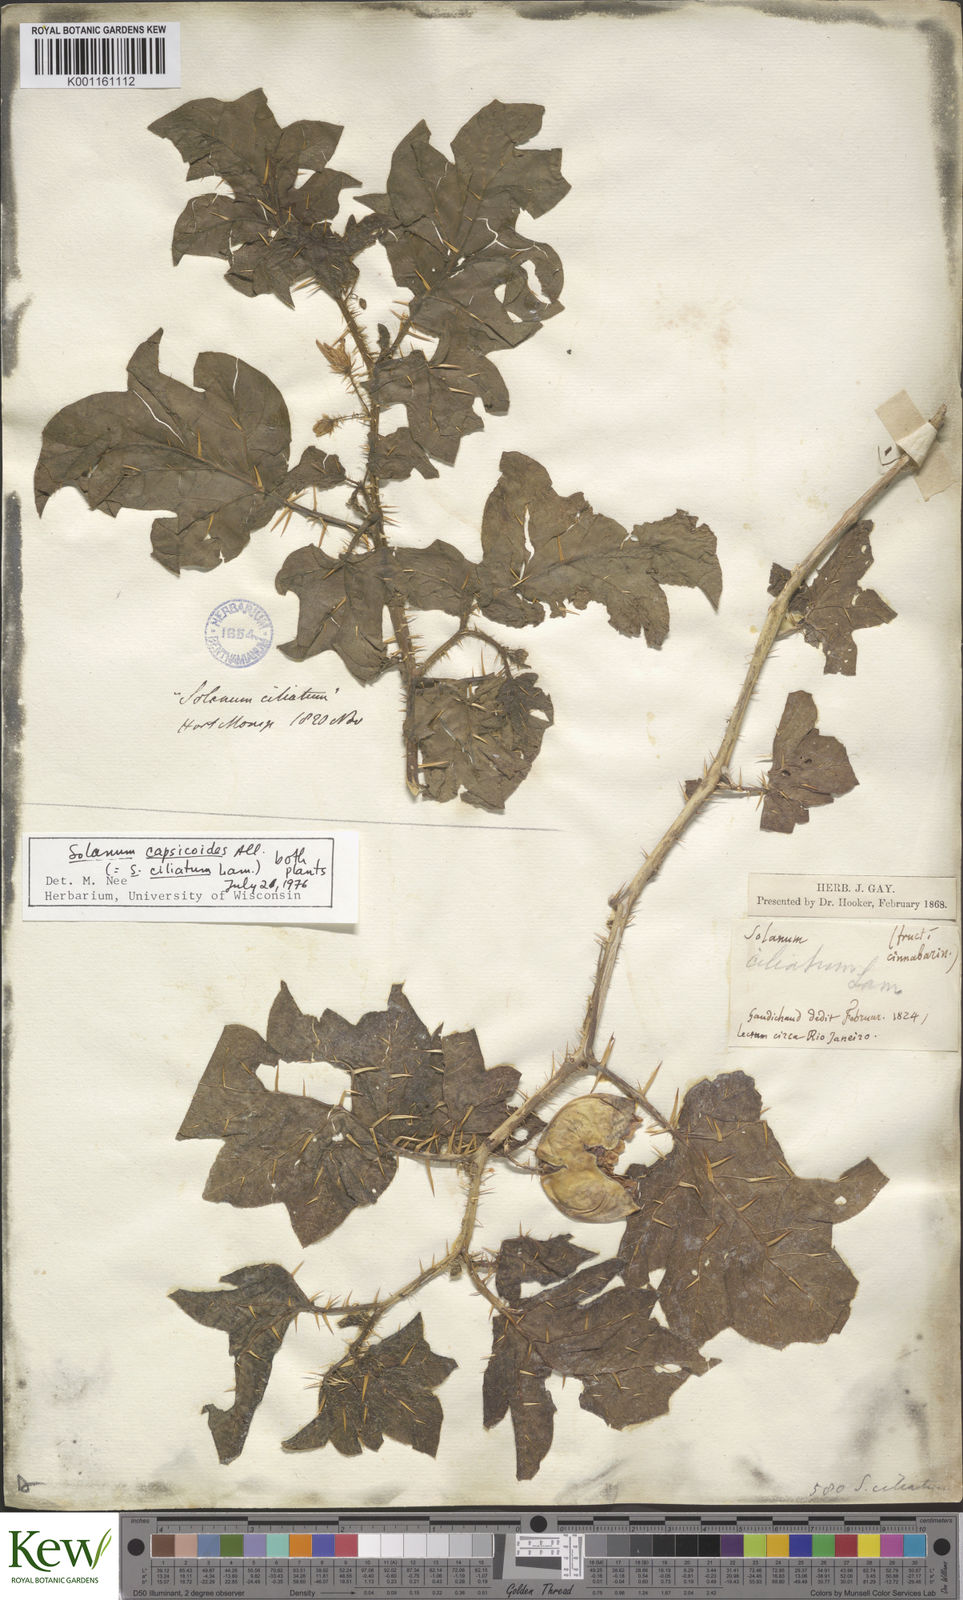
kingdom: Plantae
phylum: Tracheophyta
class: Magnoliopsida
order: Solanales
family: Solanaceae
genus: Solanum
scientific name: Solanum aculeatissimum
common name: Dutch eggplant
